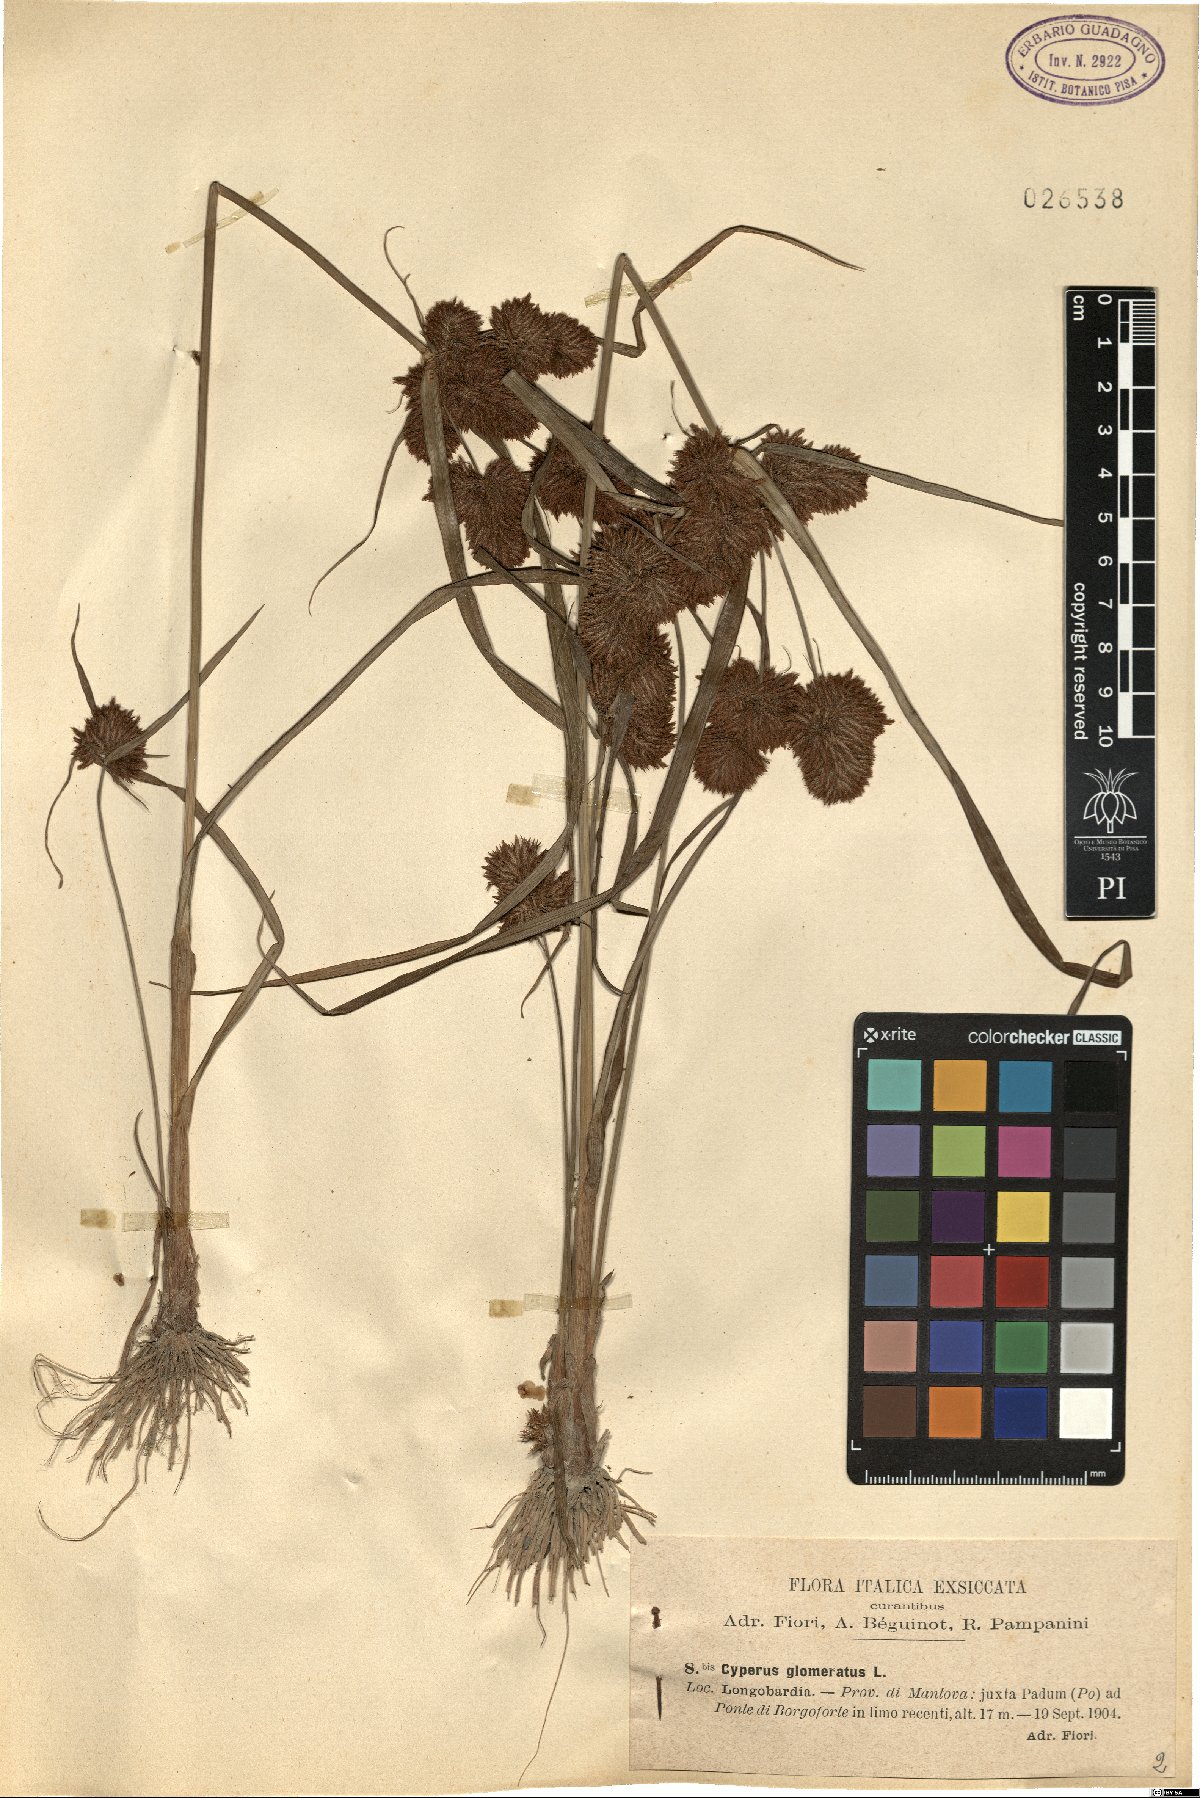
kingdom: Plantae
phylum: Tracheophyta
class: Liliopsida
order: Poales
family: Cyperaceae
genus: Cyperus
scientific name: Cyperus glomeratus
